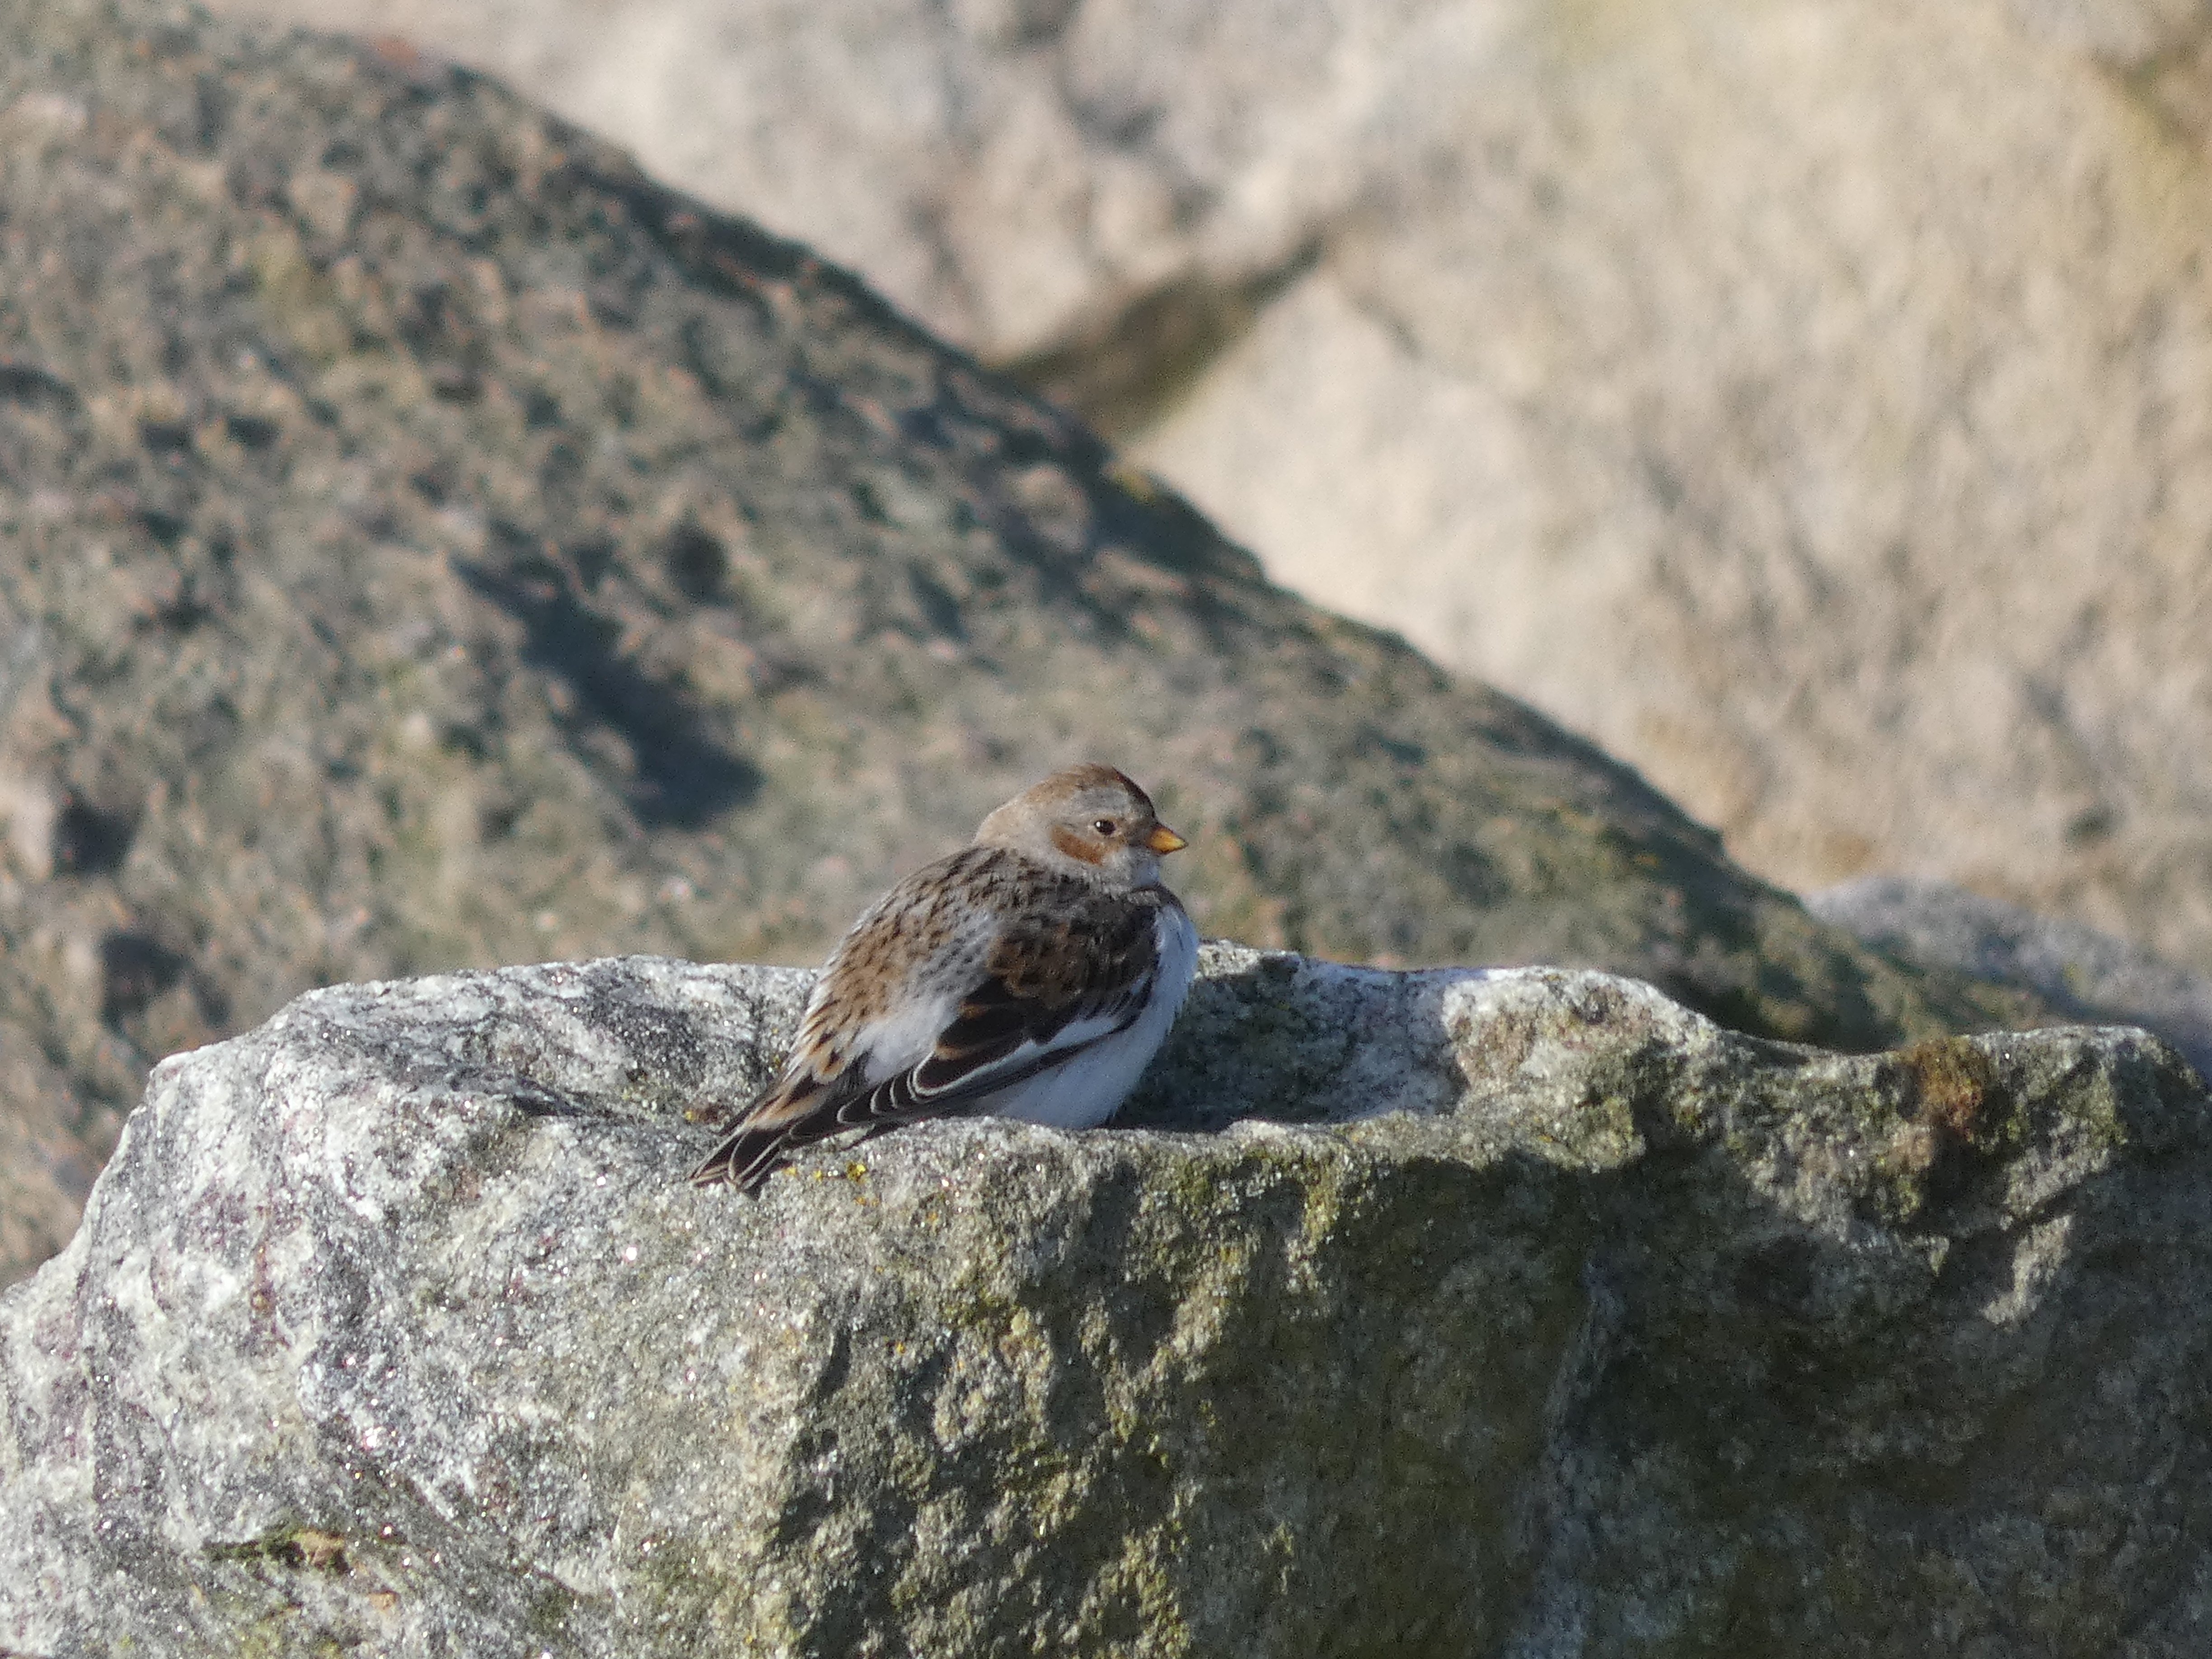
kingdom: Animalia
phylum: Chordata
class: Aves
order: Passeriformes
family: Calcariidae
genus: Plectrophenax
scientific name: Plectrophenax nivalis
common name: Snespurv
